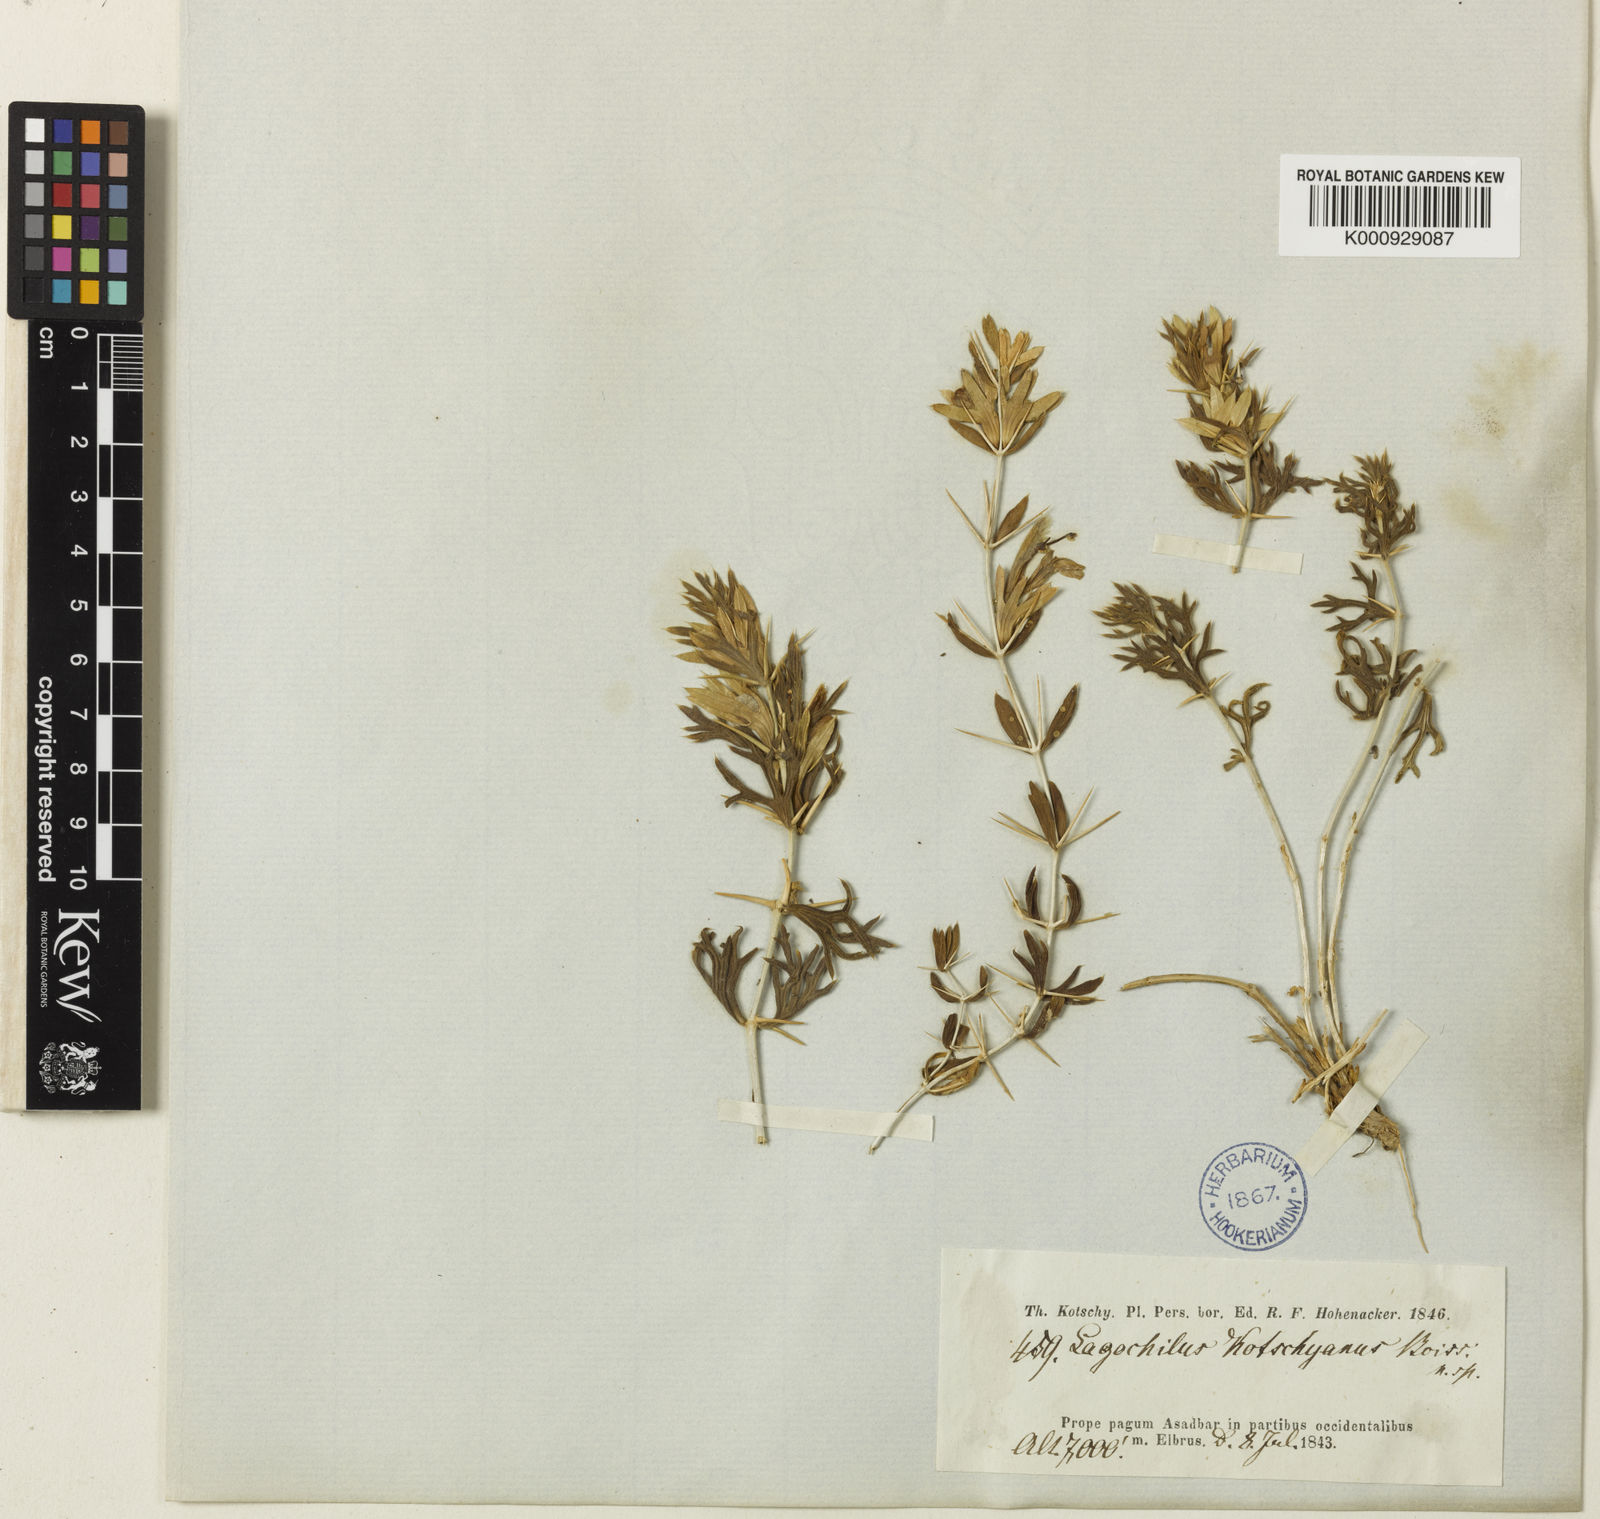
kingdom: Plantae
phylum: Tracheophyta
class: Magnoliopsida
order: Lamiales
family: Lamiaceae
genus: Lagochilus
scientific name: Lagochilus hispidus
